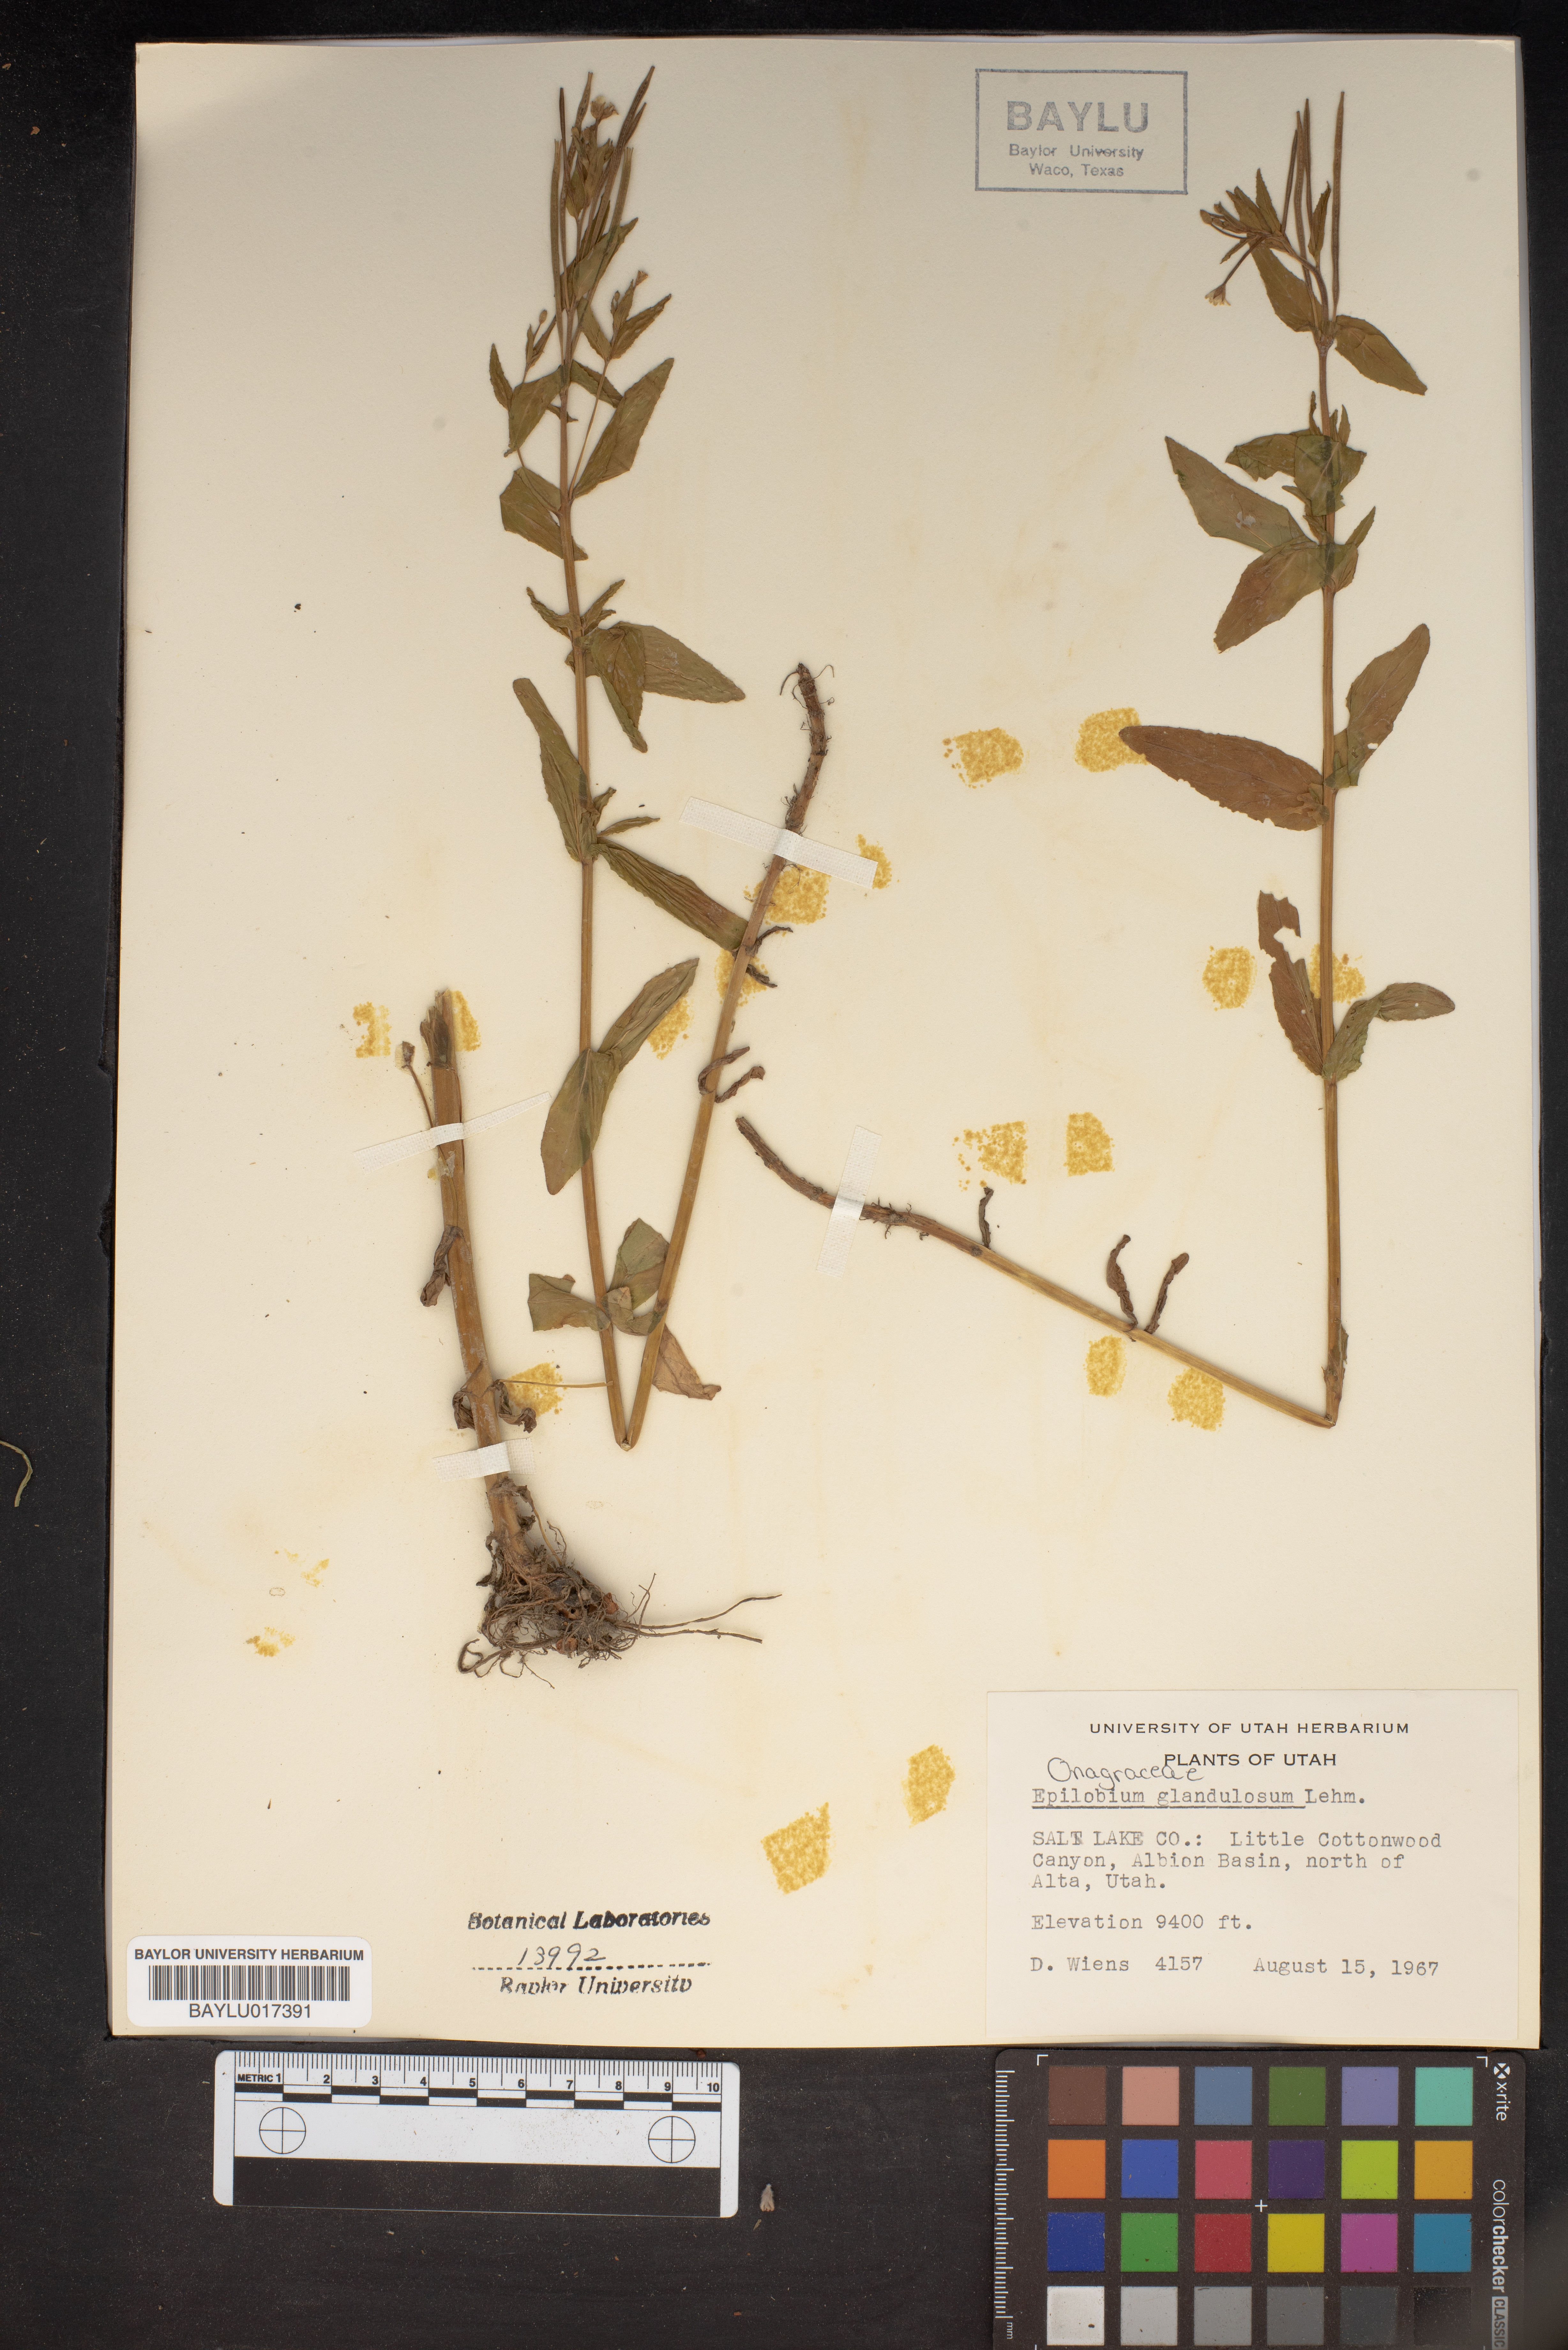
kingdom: Plantae
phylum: Tracheophyta
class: Magnoliopsida
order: Myrtales
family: Onagraceae
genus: Epilobium
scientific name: Epilobium ciliatum
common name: American willowherb
